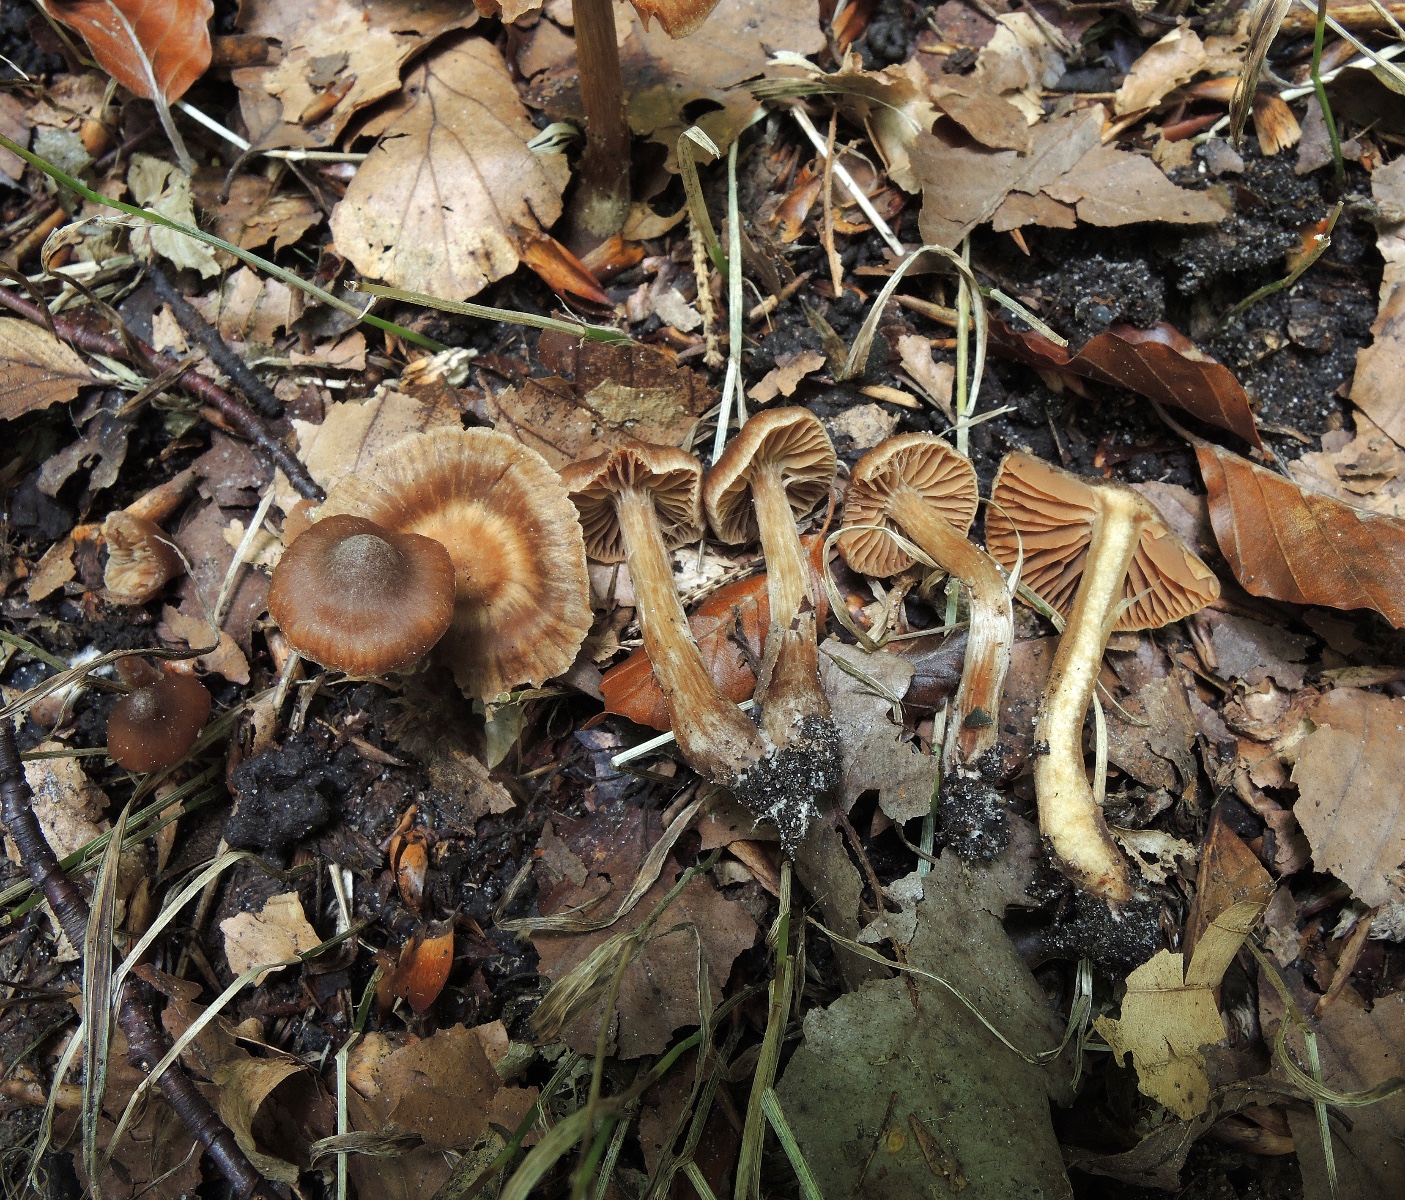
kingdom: Fungi
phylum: Basidiomycota
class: Agaricomycetes
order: Agaricales
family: Cortinariaceae
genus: Cortinarius
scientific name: Cortinarius punctatiformis
